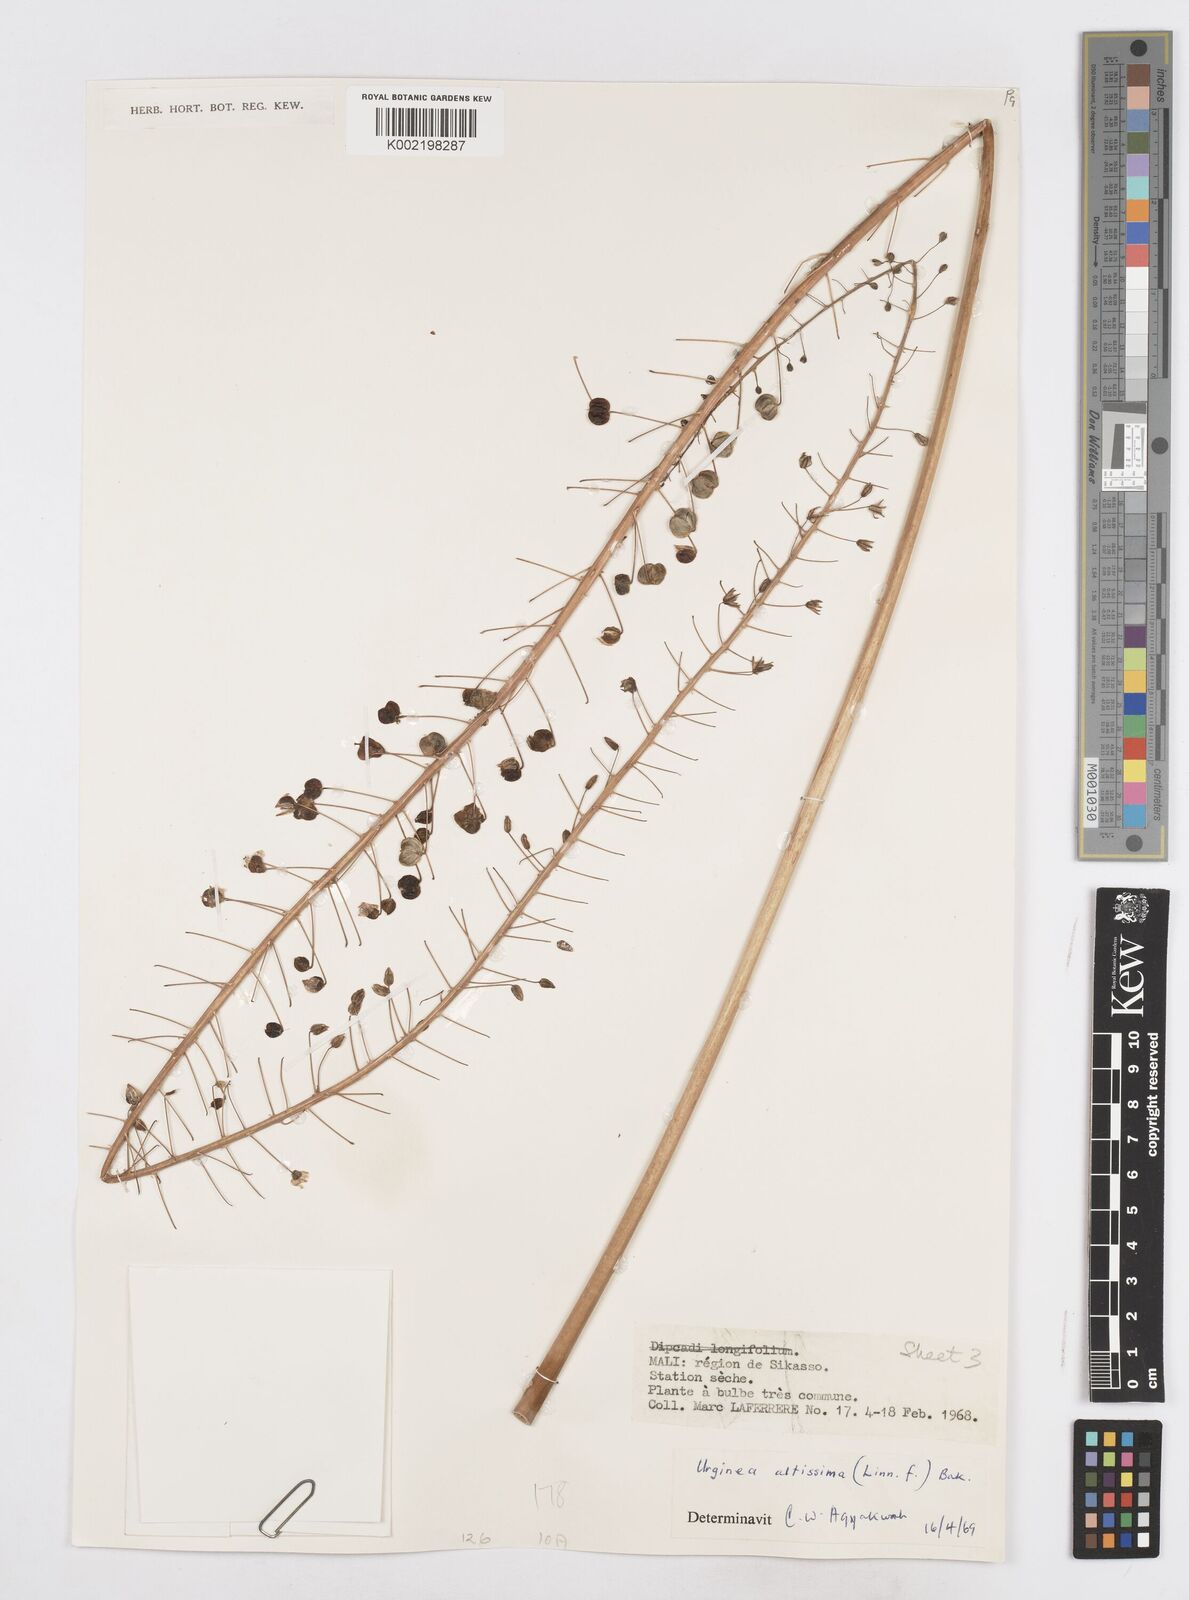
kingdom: Plantae
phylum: Tracheophyta
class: Liliopsida
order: Asparagales
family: Asparagaceae
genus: Drimia
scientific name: Drimia altissima
